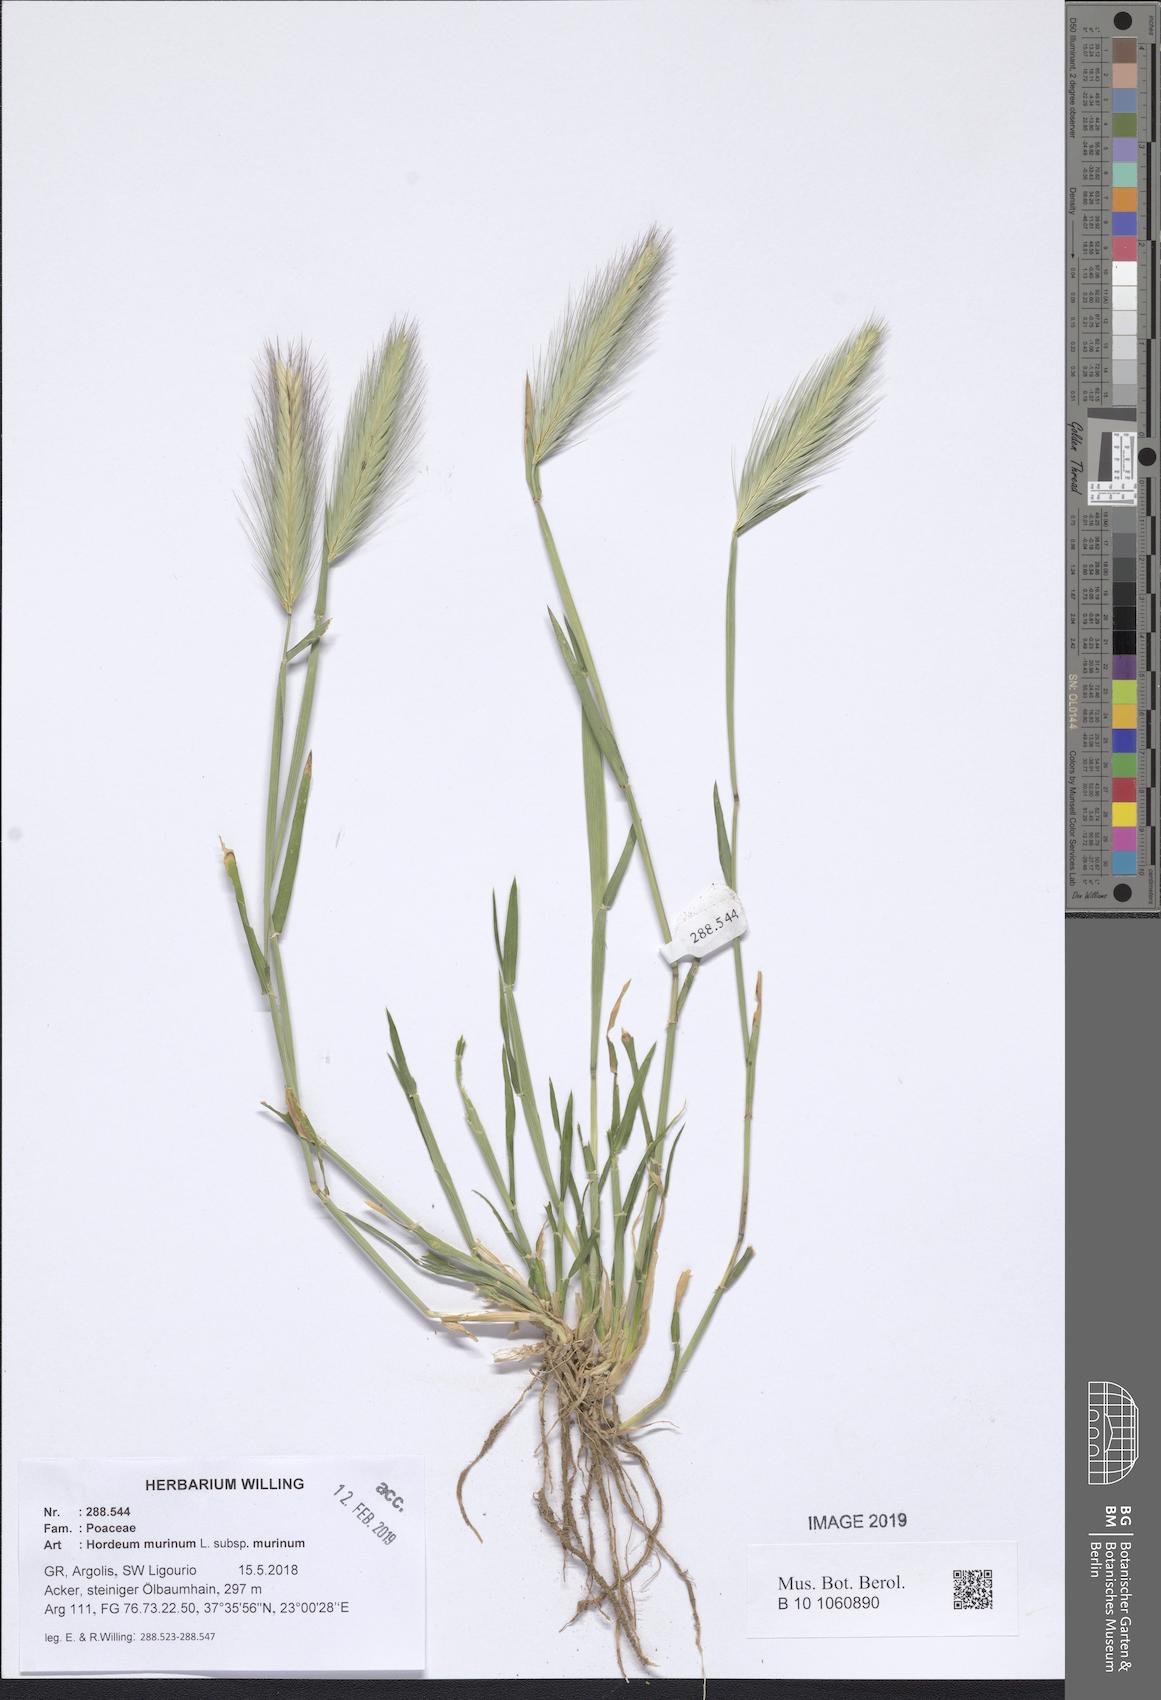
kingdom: Plantae
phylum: Tracheophyta
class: Liliopsida
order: Poales
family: Poaceae
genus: Hordeum
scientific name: Hordeum murinum
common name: Wall barley
